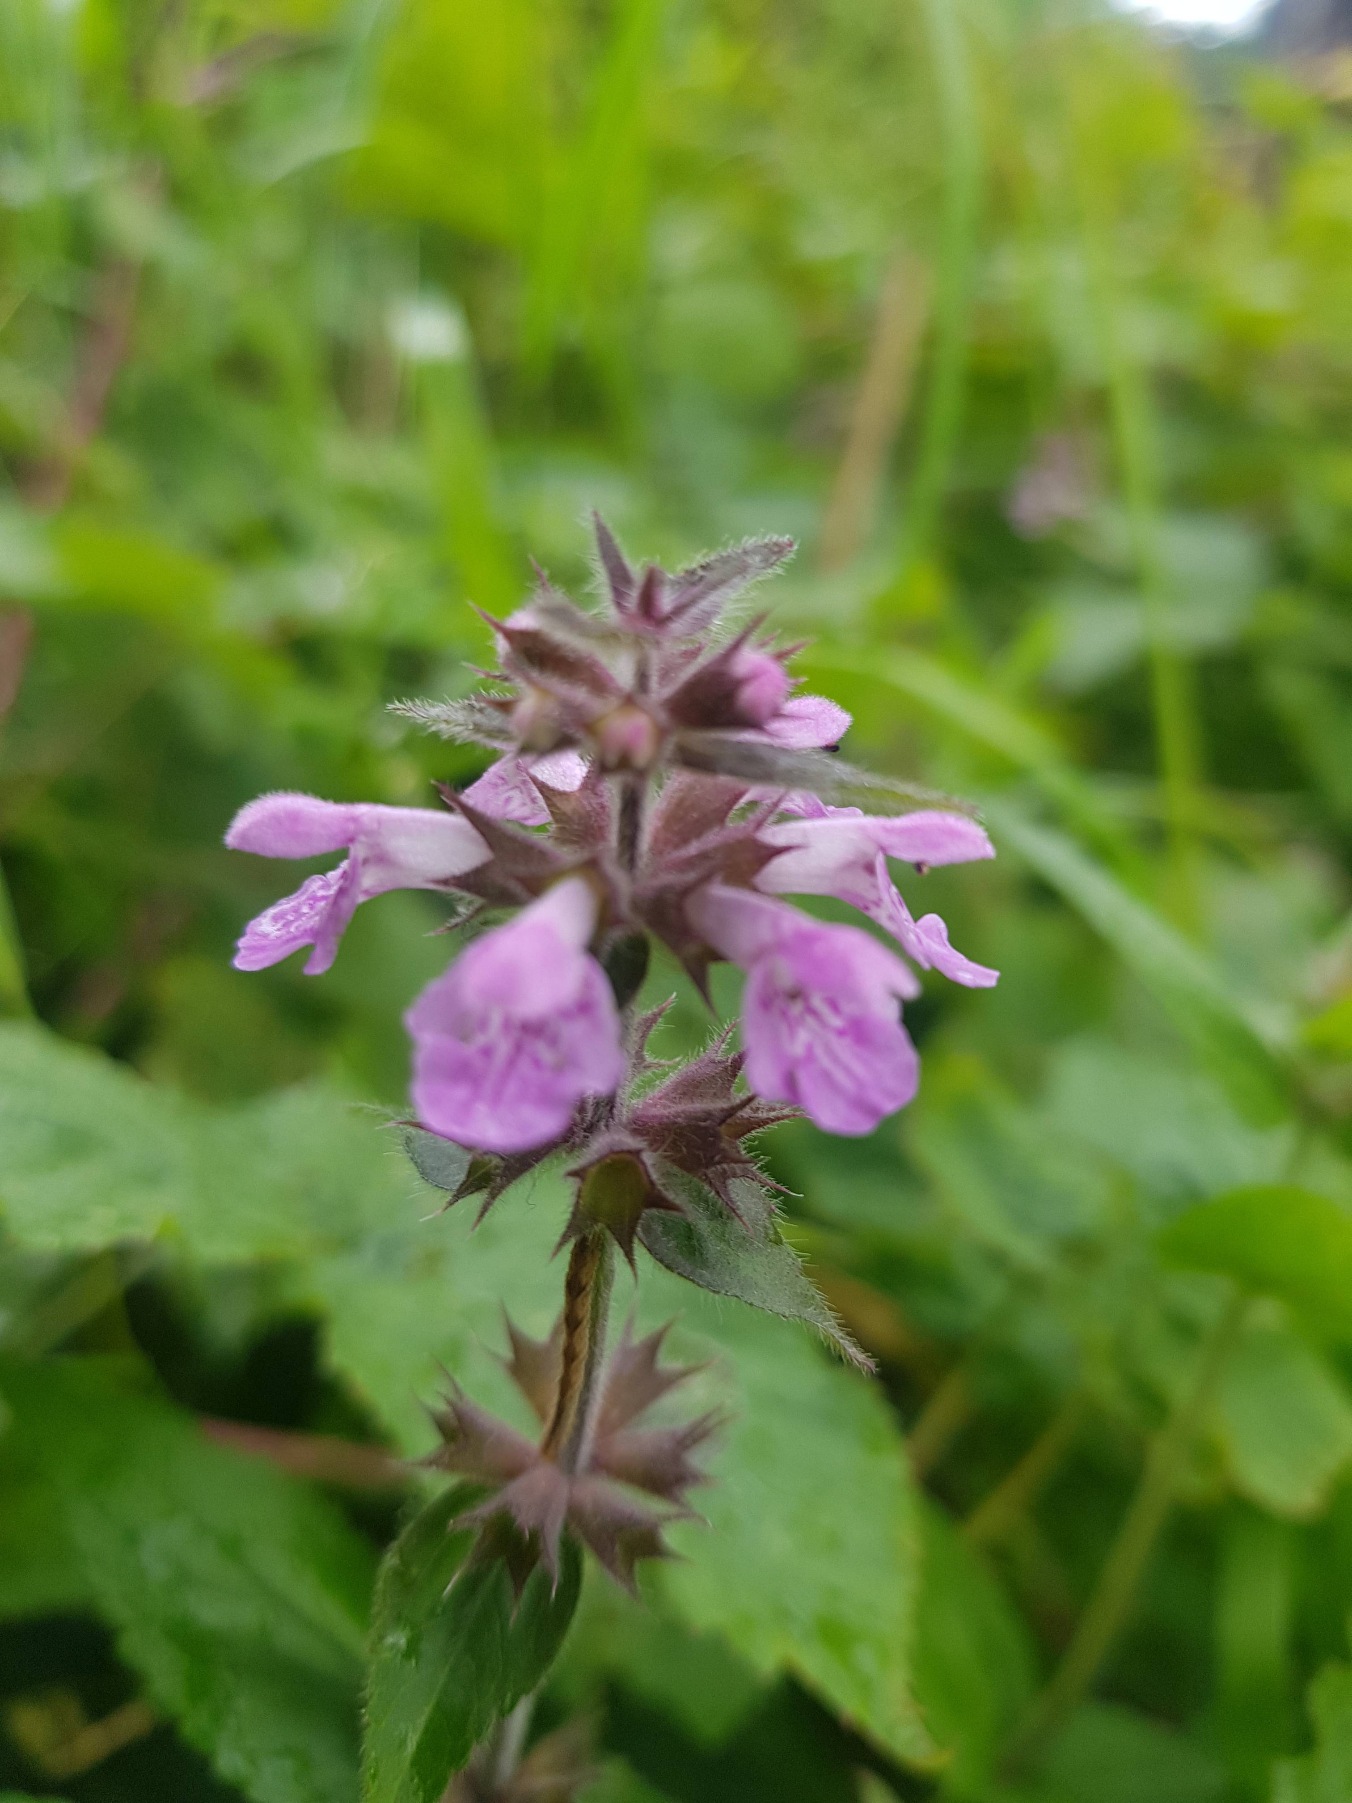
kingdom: Plantae
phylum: Tracheophyta
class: Magnoliopsida
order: Lamiales
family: Lamiaceae
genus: Stachys
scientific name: Stachys palustris
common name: Kær-galtetand
